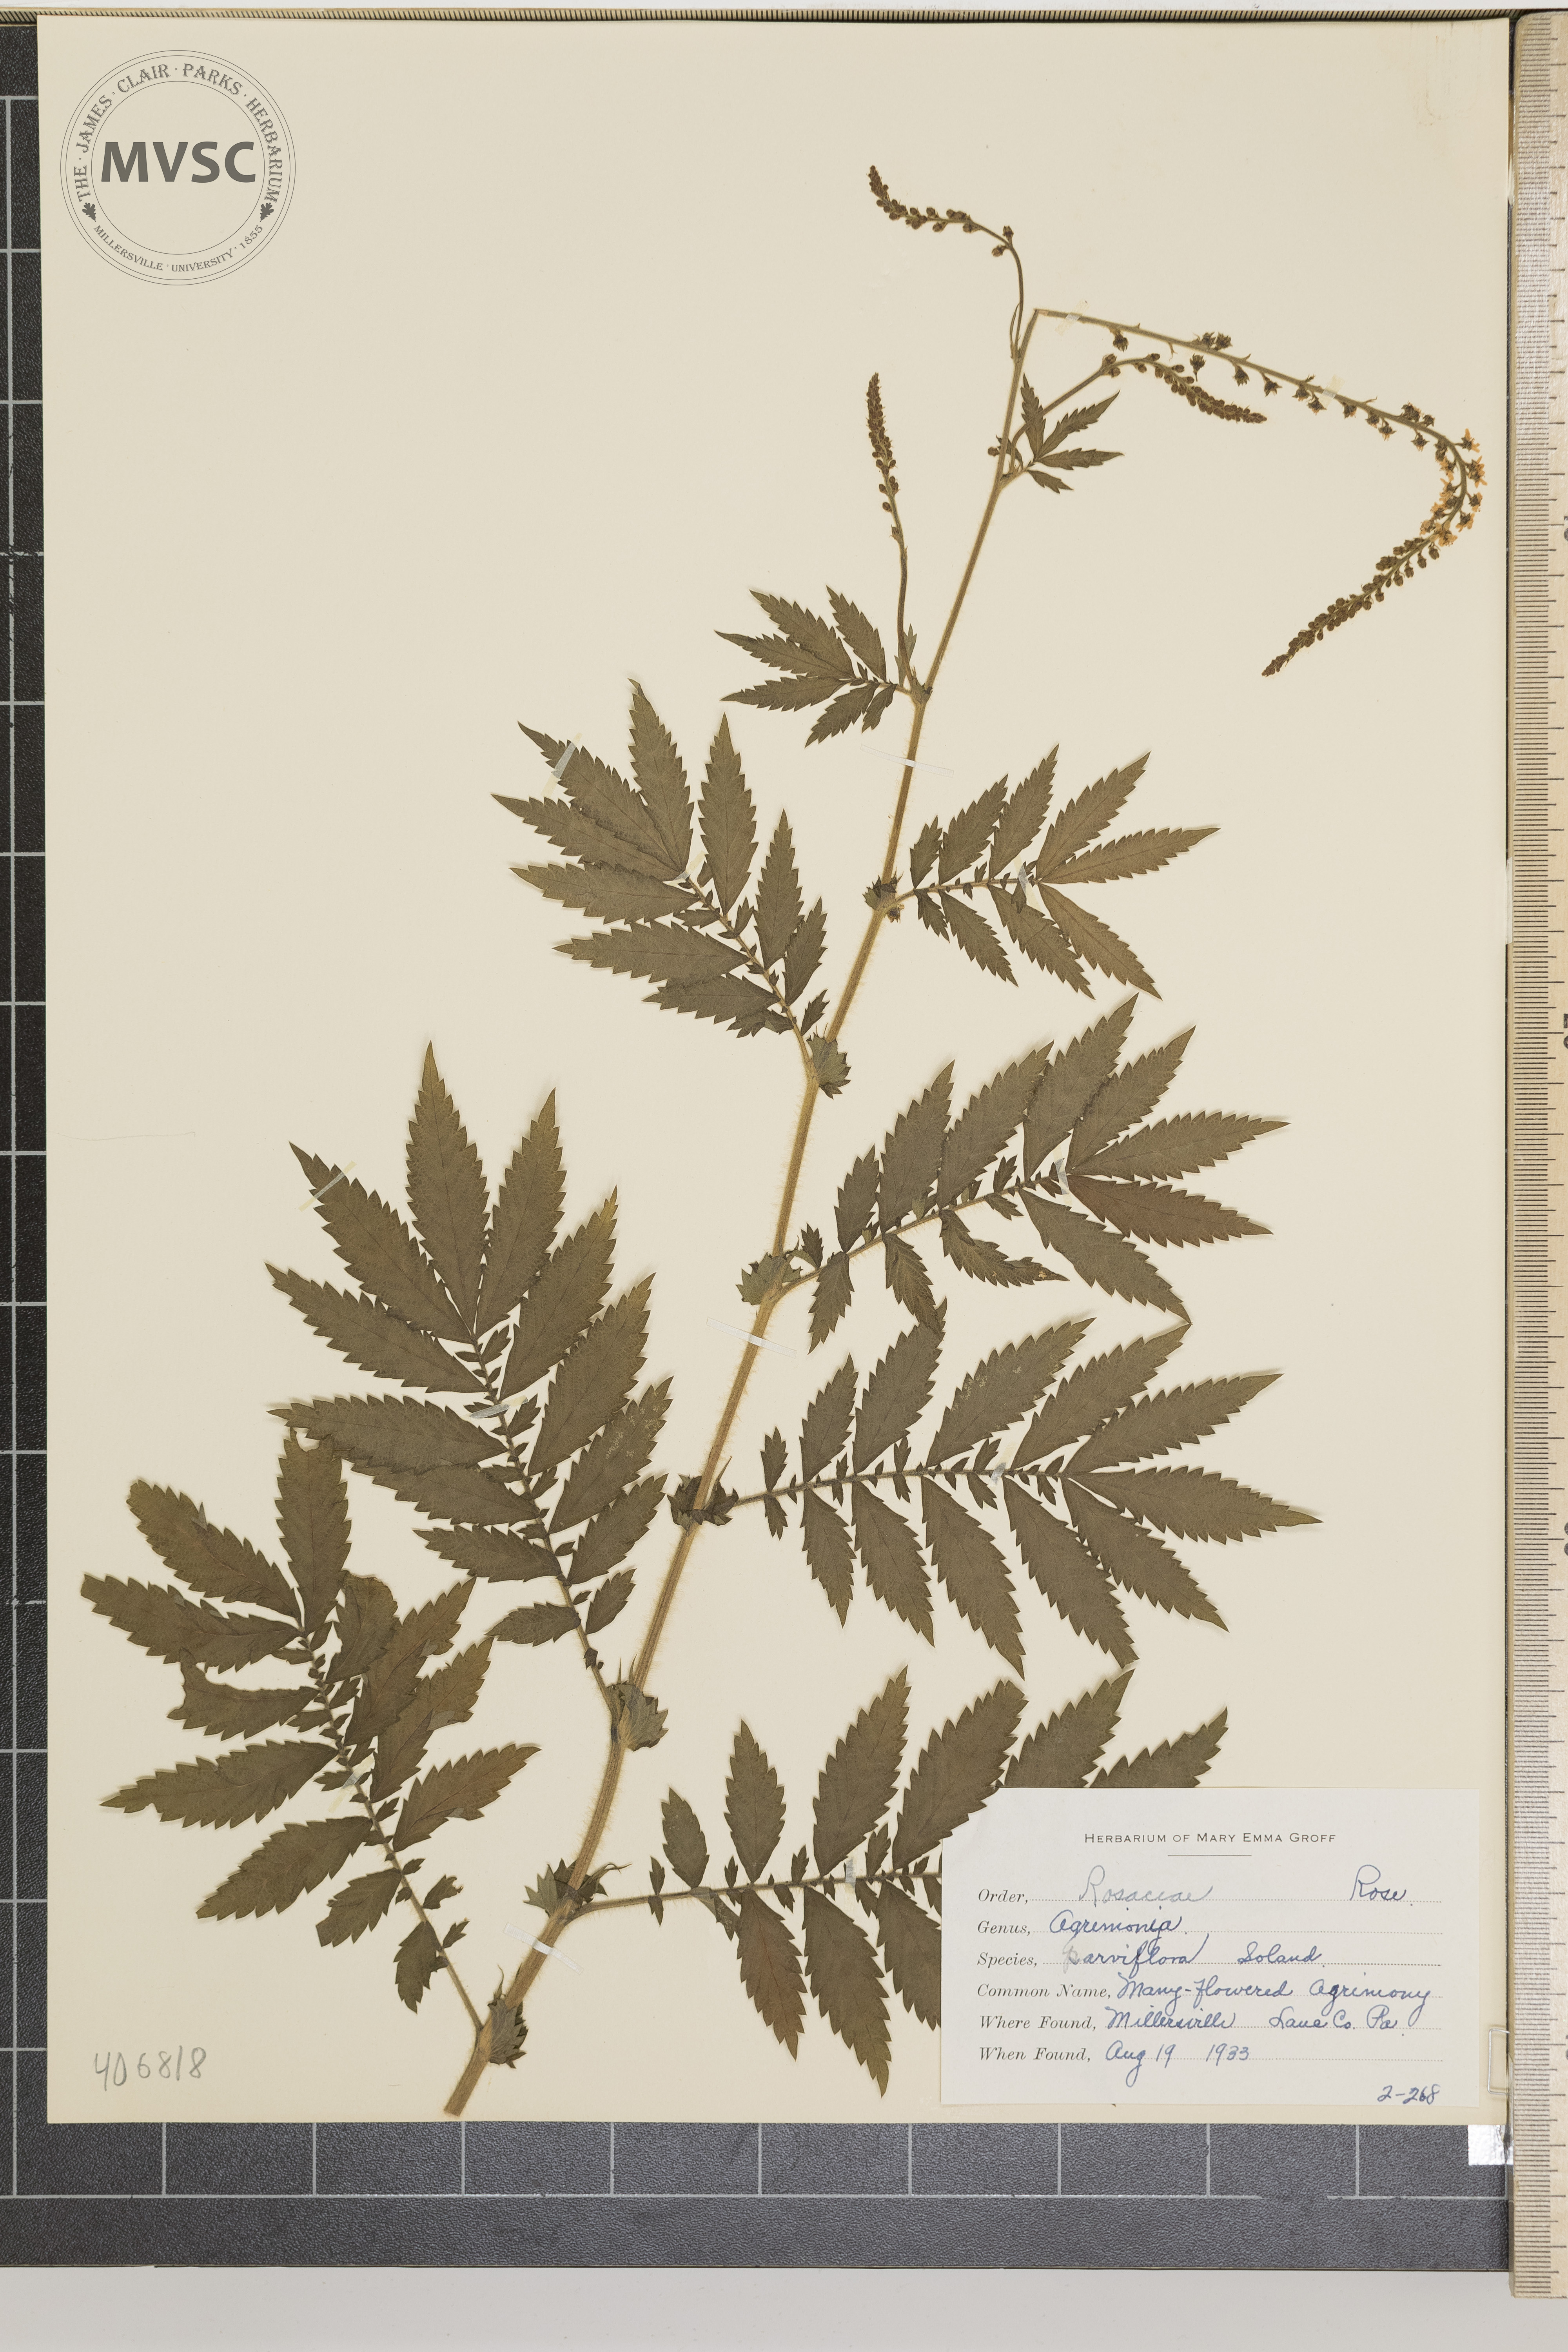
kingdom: Plantae
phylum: Tracheophyta
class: Magnoliopsida
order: Rosales
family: Rosaceae
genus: Agrimonia
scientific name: Agrimonia parviflora
